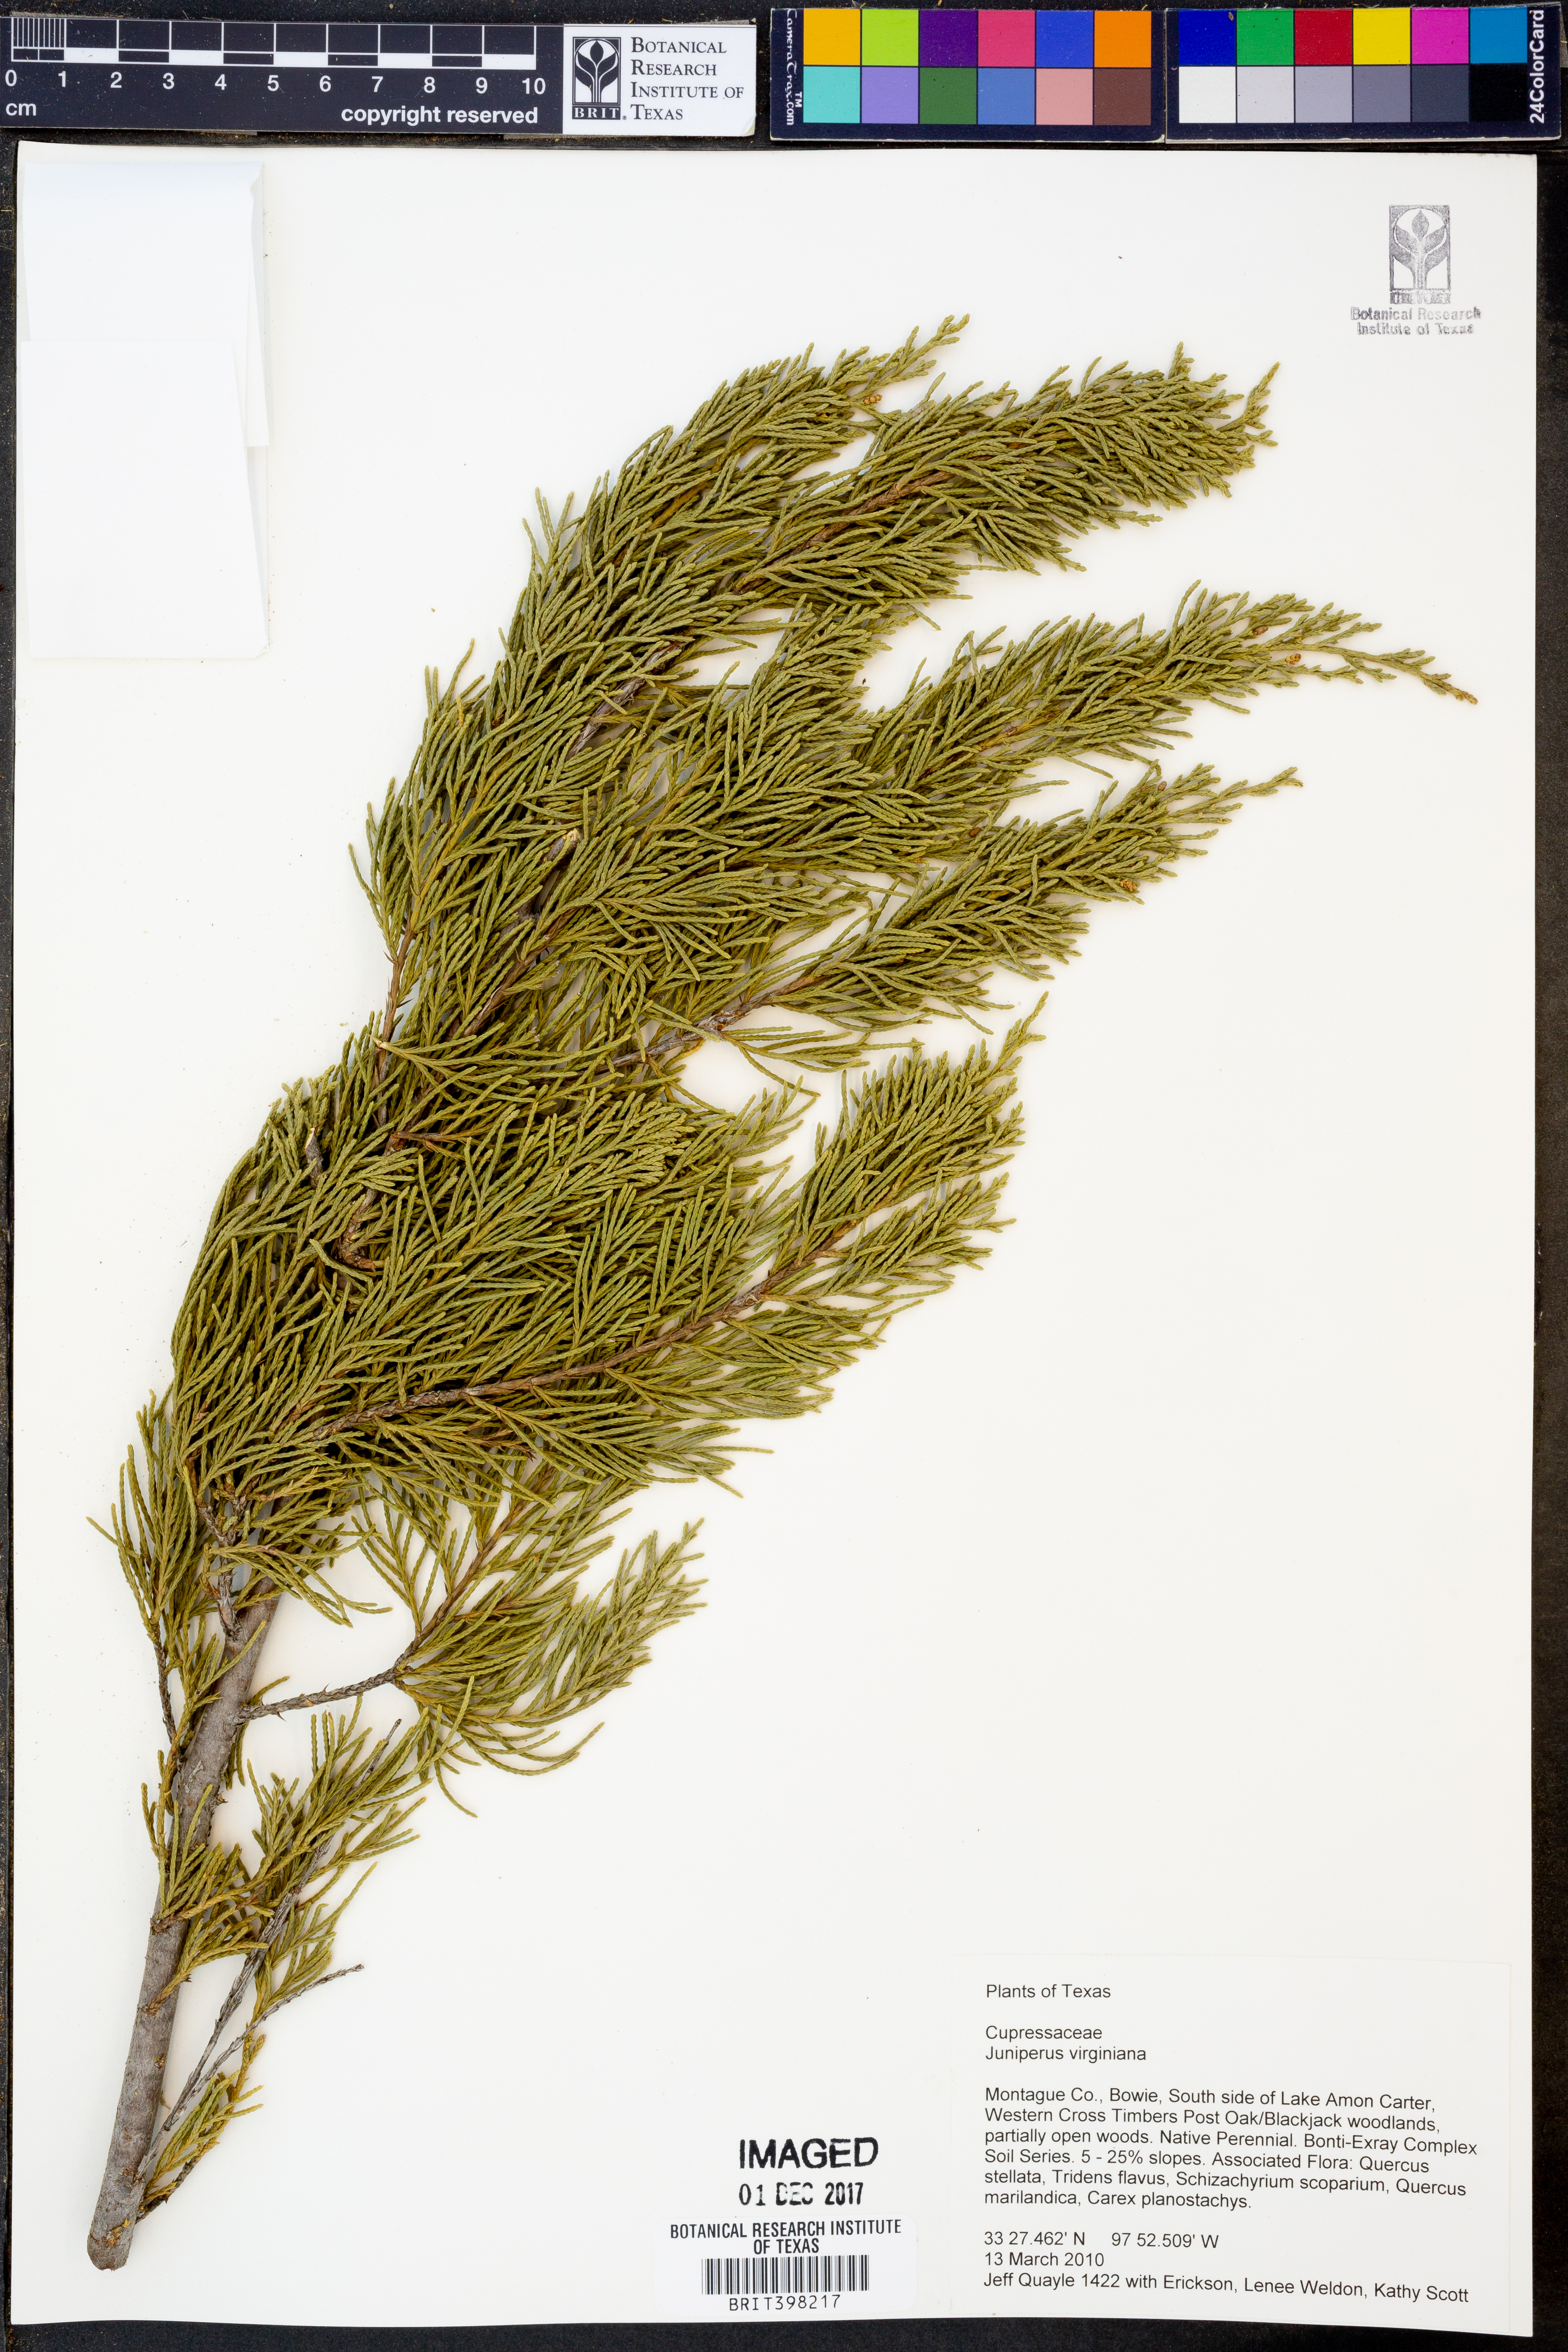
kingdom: Plantae
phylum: Tracheophyta
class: Pinopsida
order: Pinales
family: Cupressaceae
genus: Juniperus
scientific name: Juniperus virginiana
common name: Red juniper
